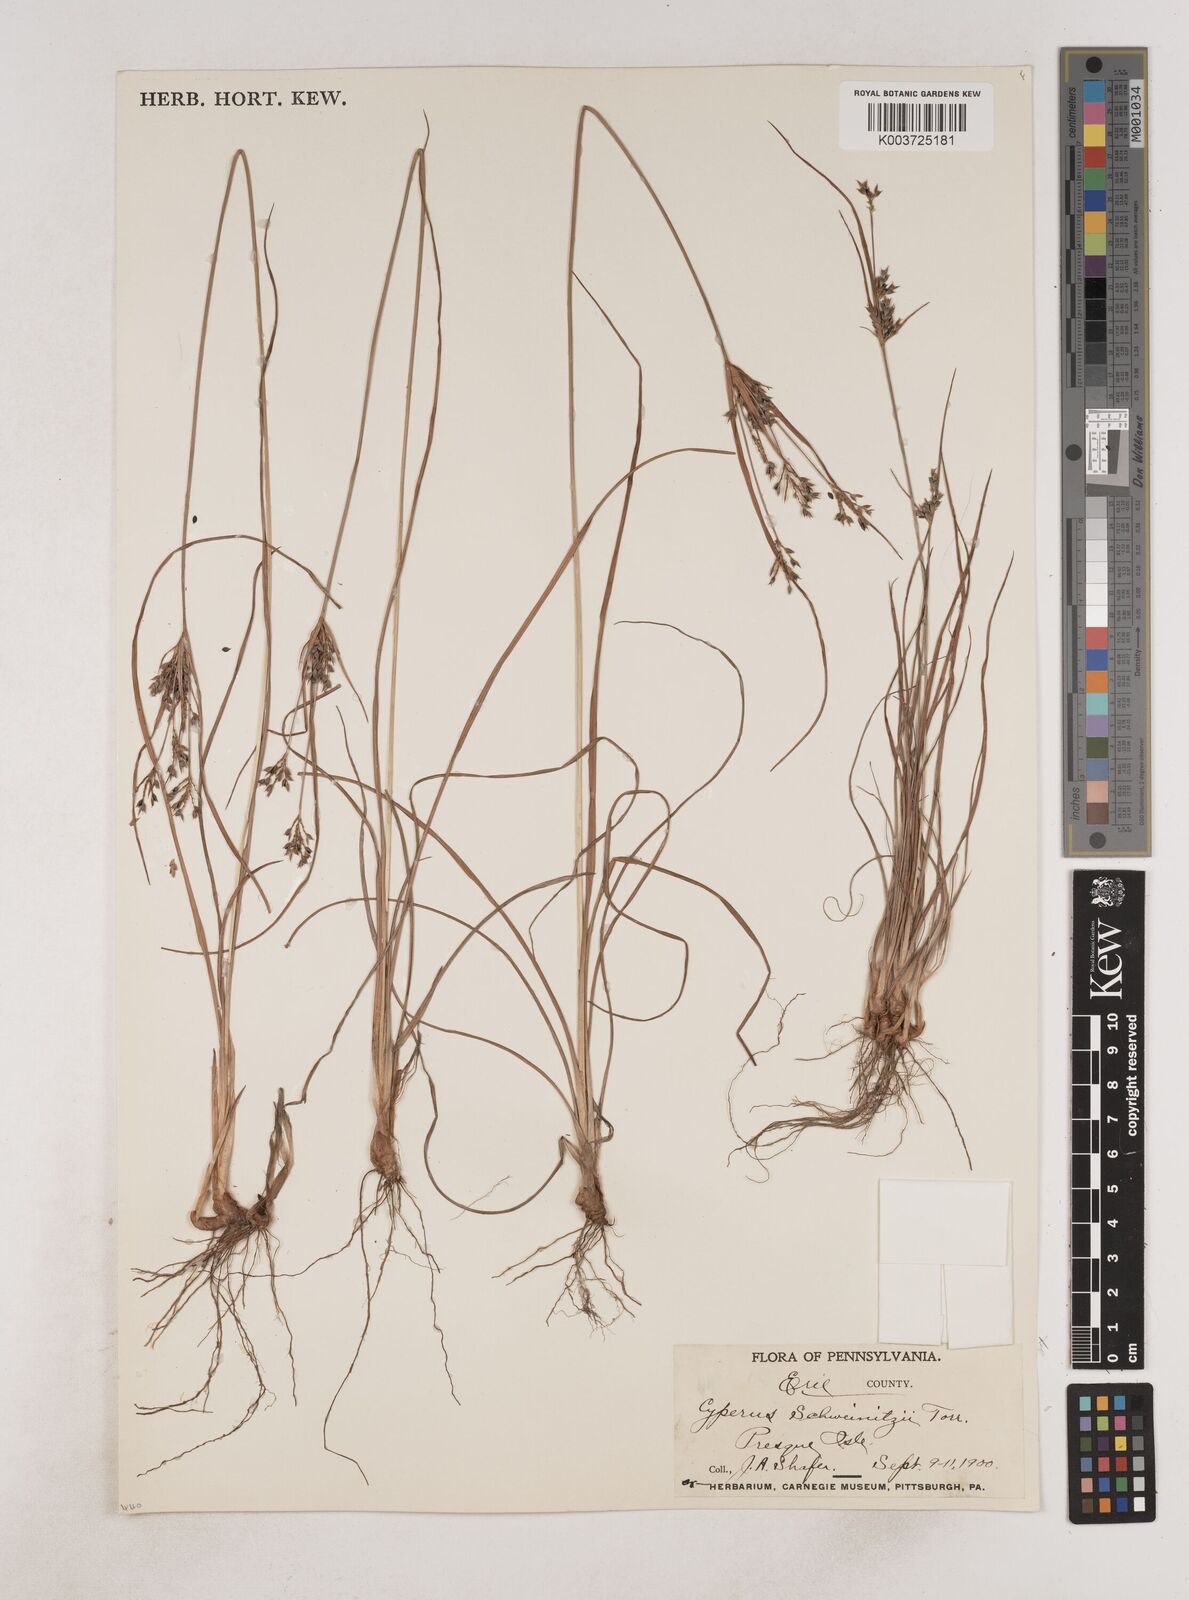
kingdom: Plantae
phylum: Tracheophyta
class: Liliopsida
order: Poales
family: Cyperaceae
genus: Cyperus
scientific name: Cyperus schweinitzii
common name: Schweinitz's cyperus
